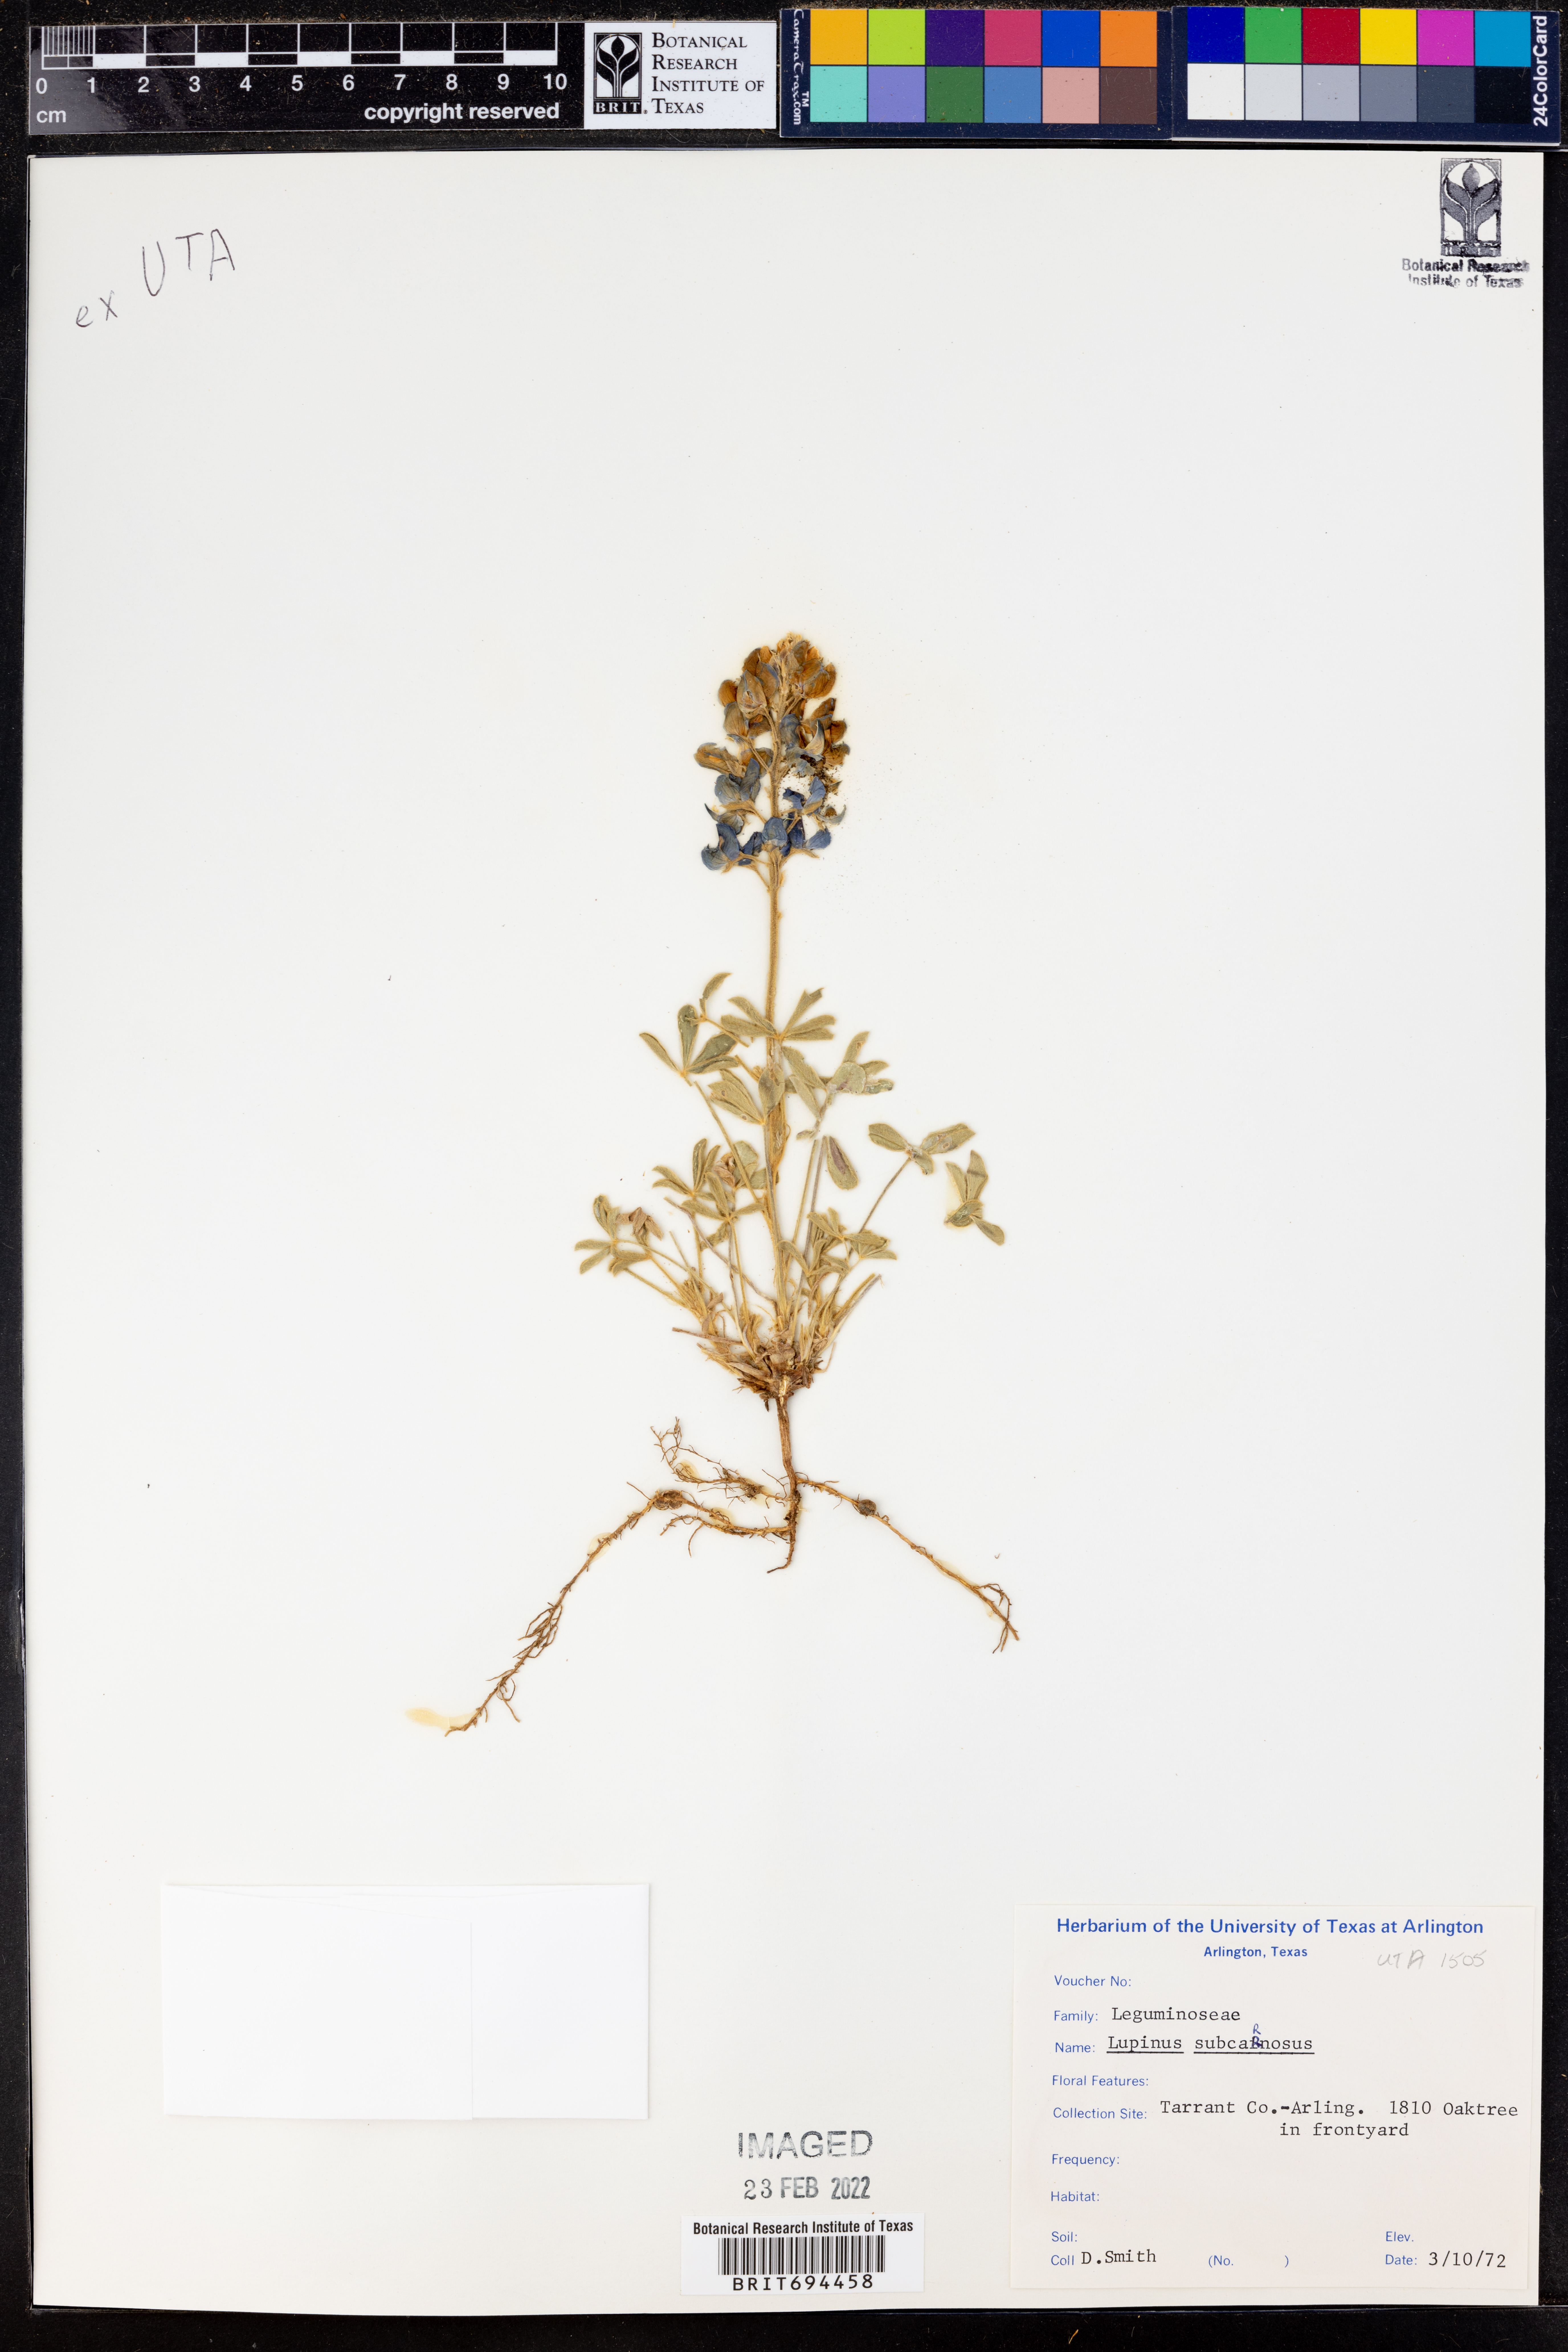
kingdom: Plantae
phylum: Tracheophyta
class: Magnoliopsida
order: Fabales
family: Fabaceae
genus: Lupinus
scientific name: Lupinus subcarnosus
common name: Texas bluebonnet
